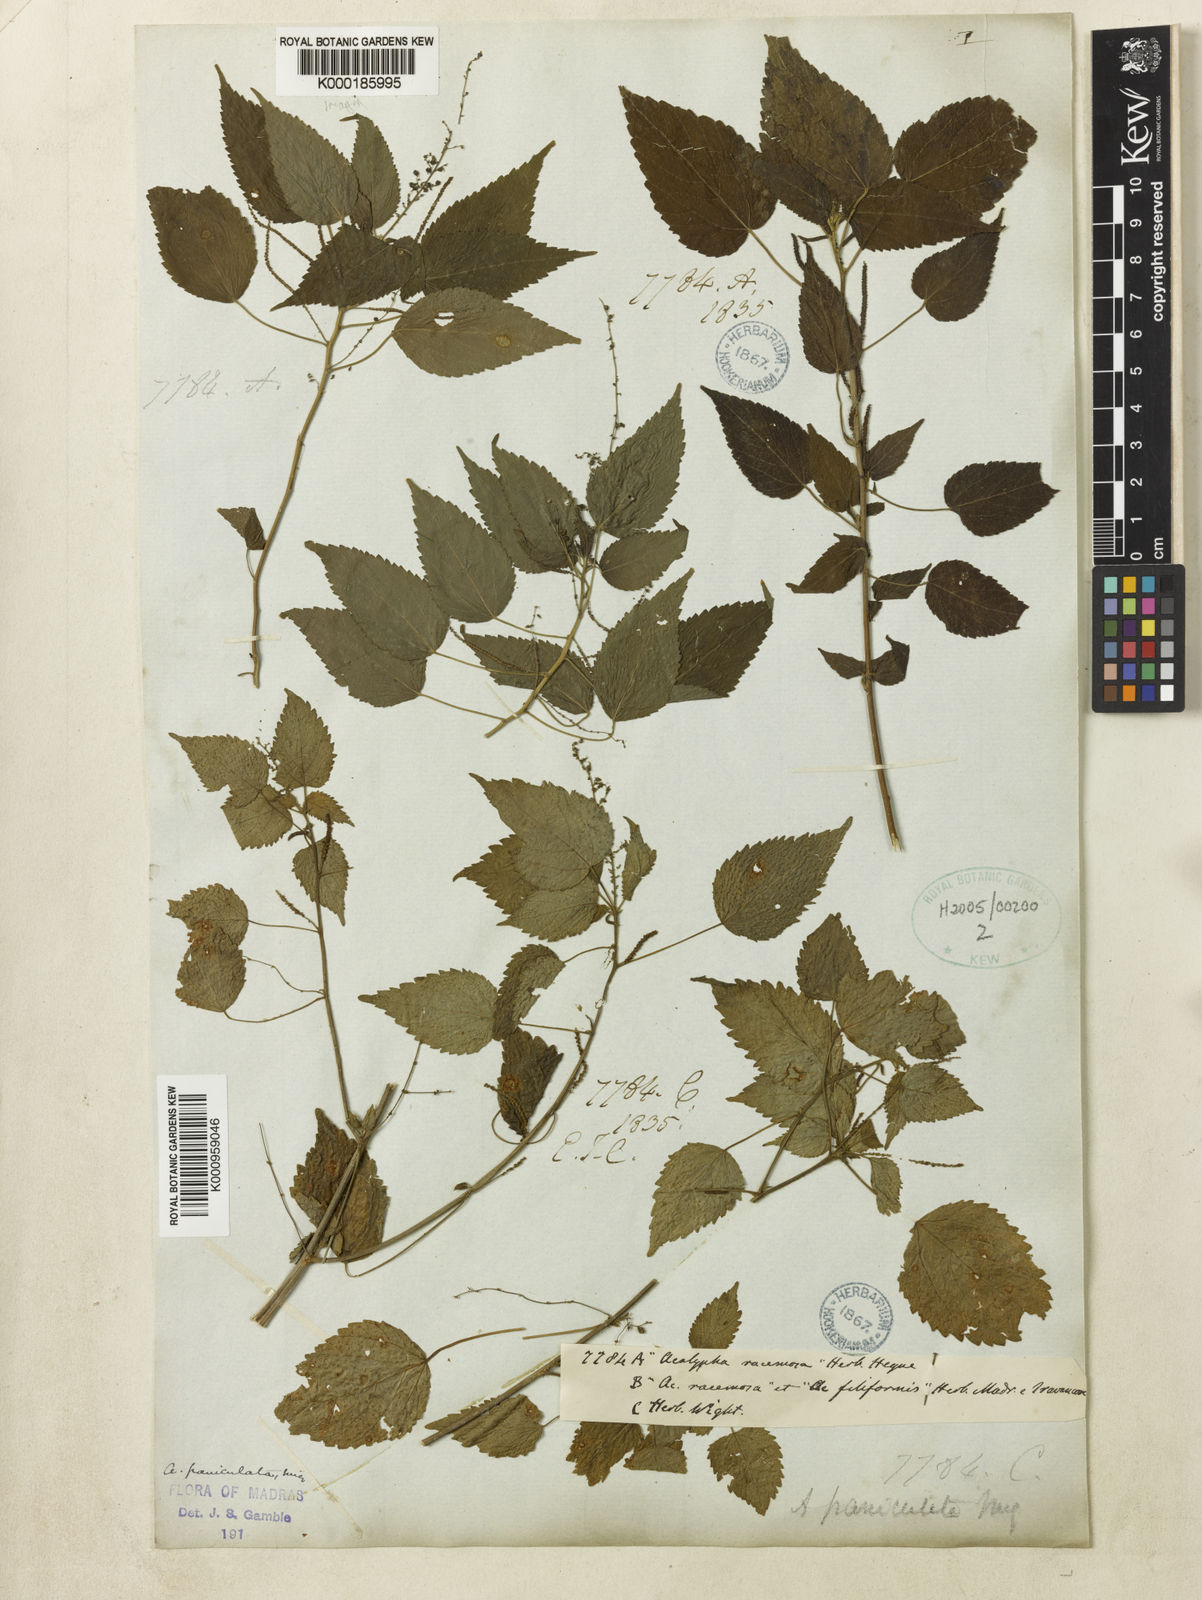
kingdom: Plantae
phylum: Tracheophyta
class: Magnoliopsida
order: Malpighiales
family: Euphorbiaceae
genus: Acalypha
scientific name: Acalypha paniculata
